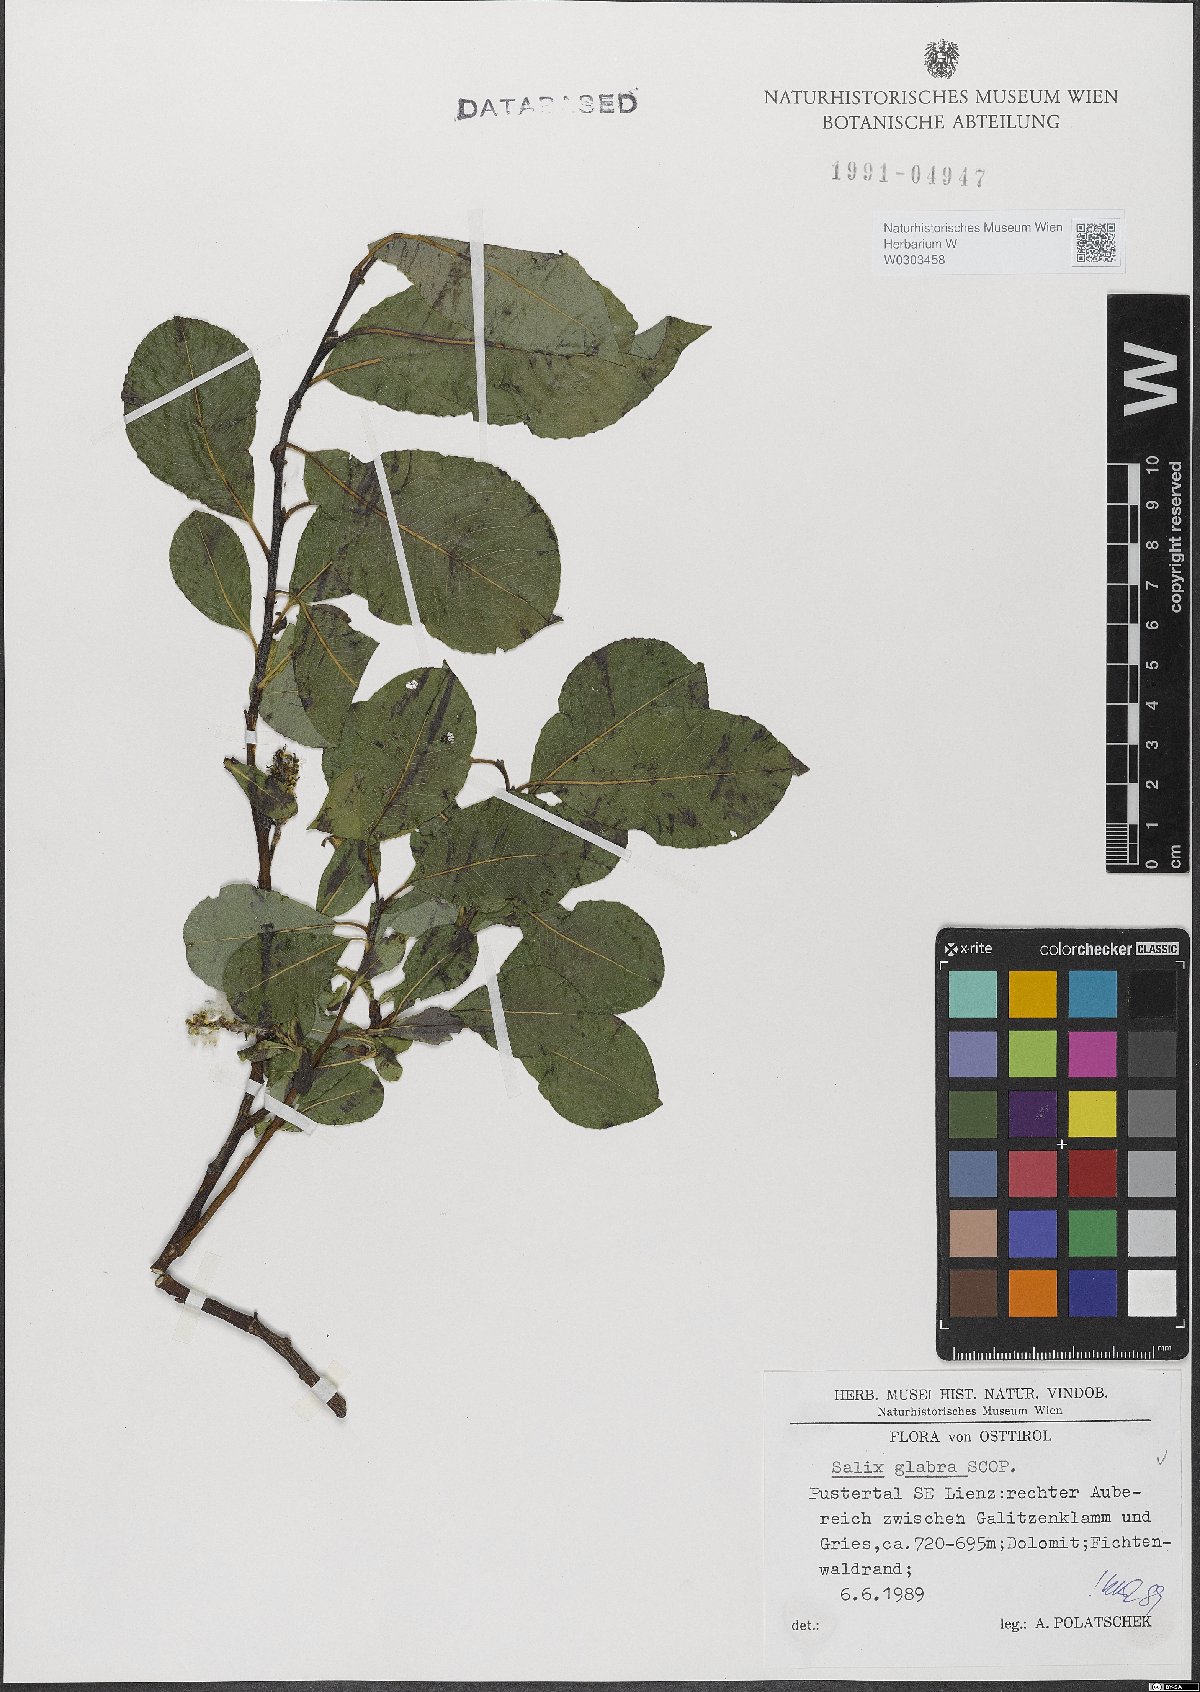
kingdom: Plantae
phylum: Tracheophyta
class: Magnoliopsida
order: Malpighiales
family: Salicaceae
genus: Salix
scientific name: Salix glabra
